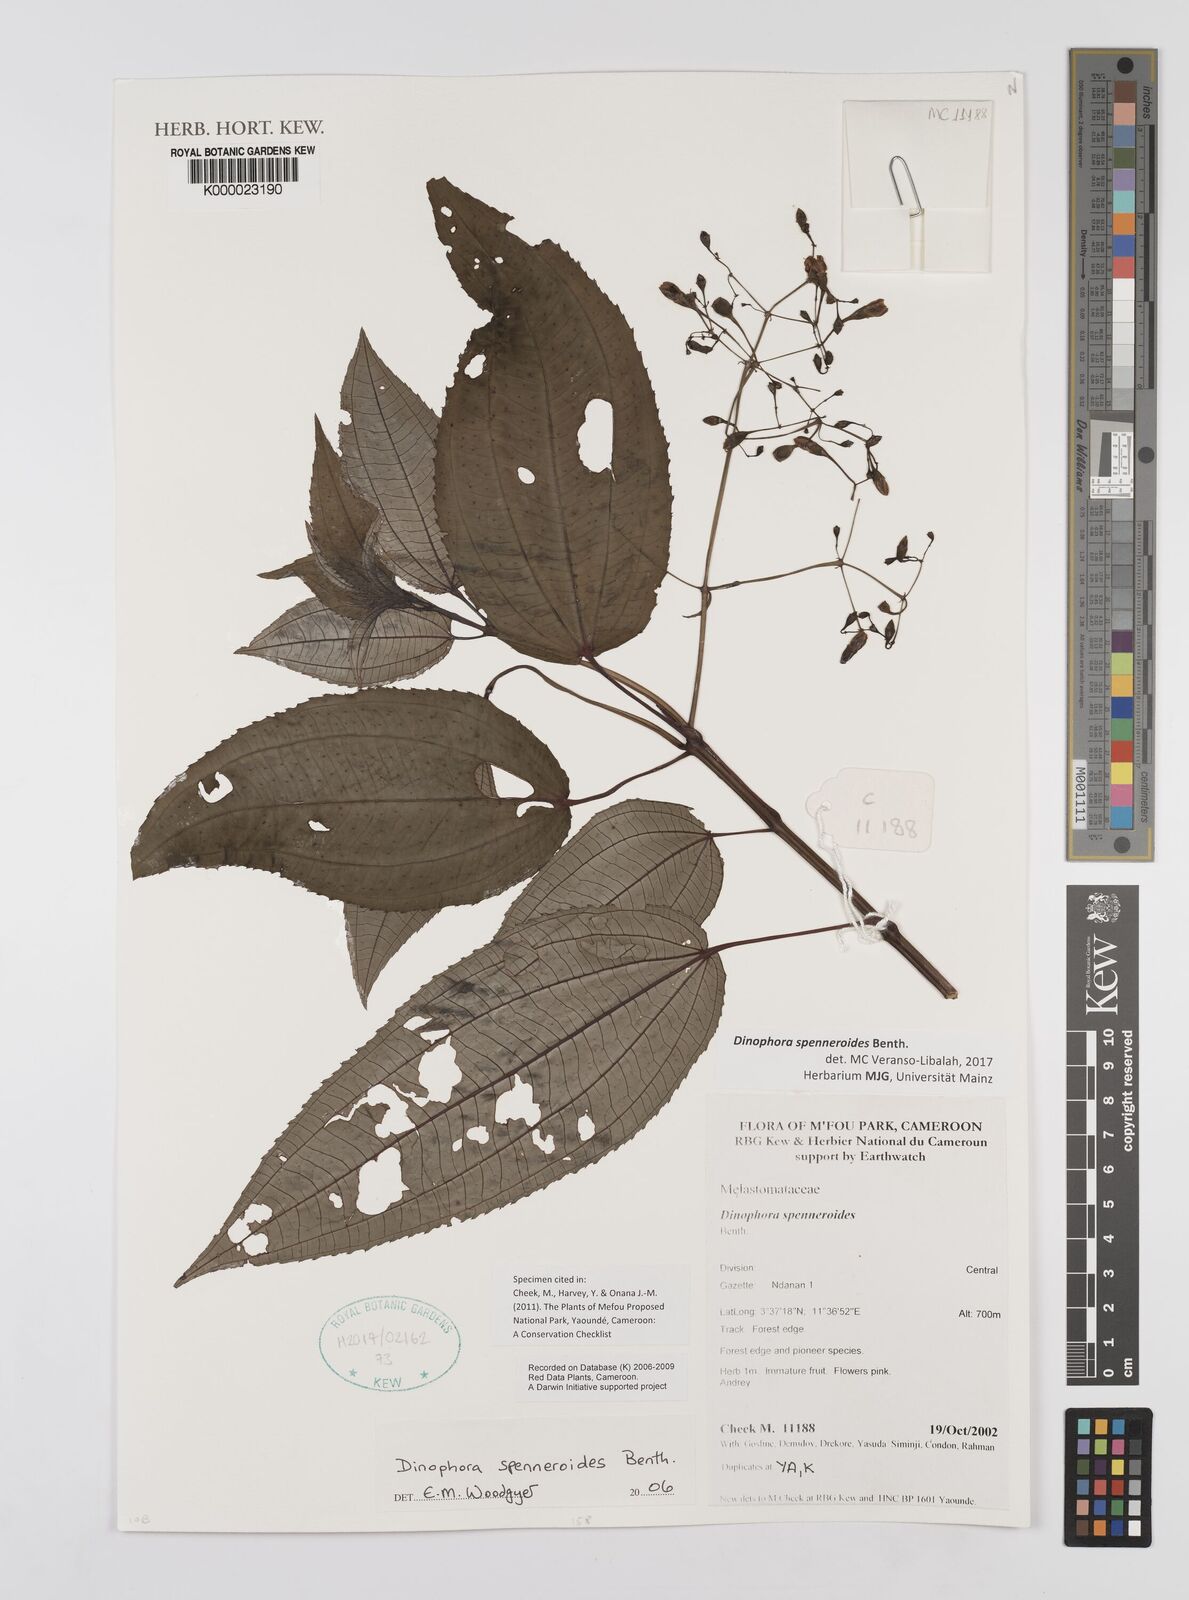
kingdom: Plantae
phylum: Tracheophyta
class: Magnoliopsida
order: Myrtales
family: Melastomataceae
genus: Dinophora
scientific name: Dinophora spenneroides
